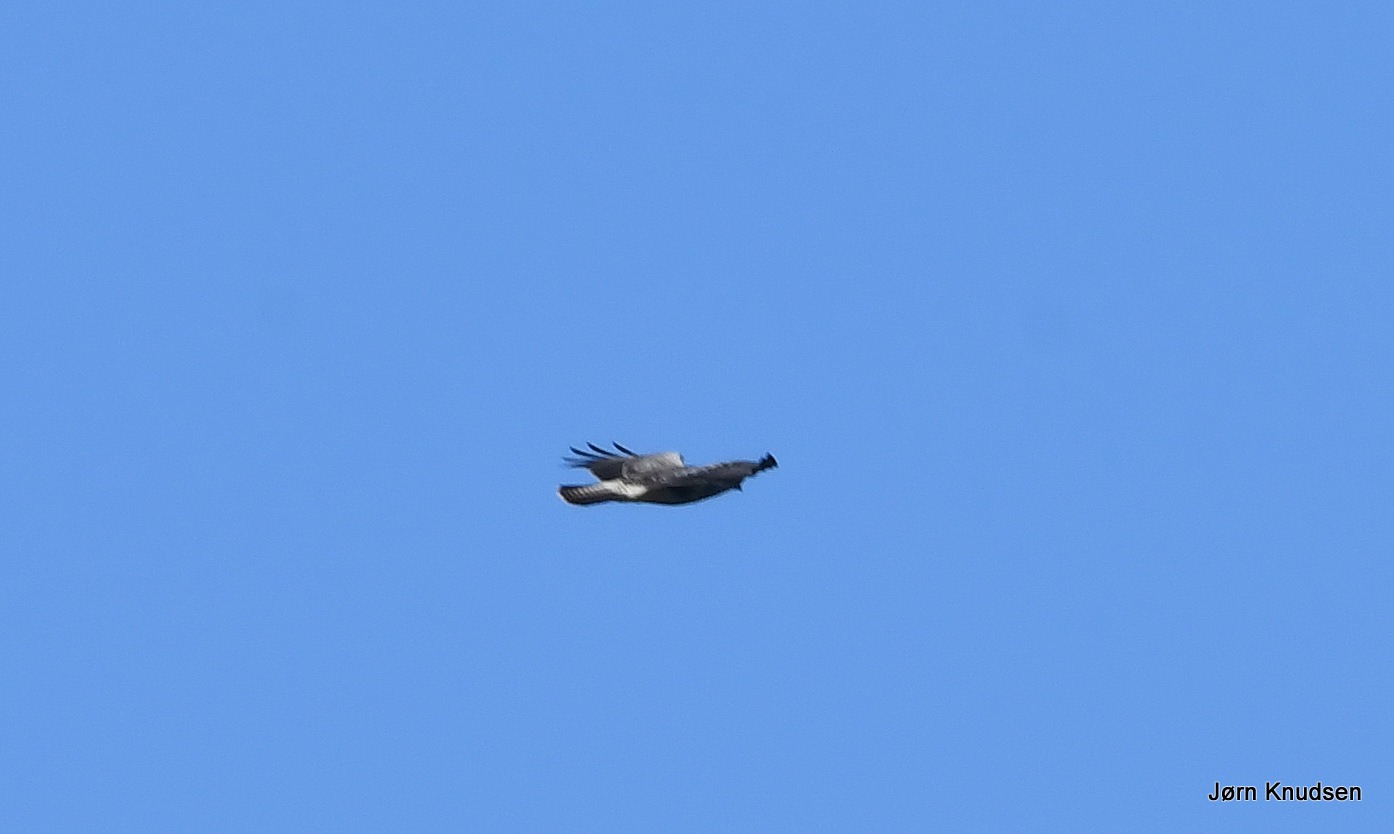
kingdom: Animalia
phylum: Chordata
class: Aves
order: Accipitriformes
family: Accipitridae
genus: Buteo
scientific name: Buteo buteo
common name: Musvåge
